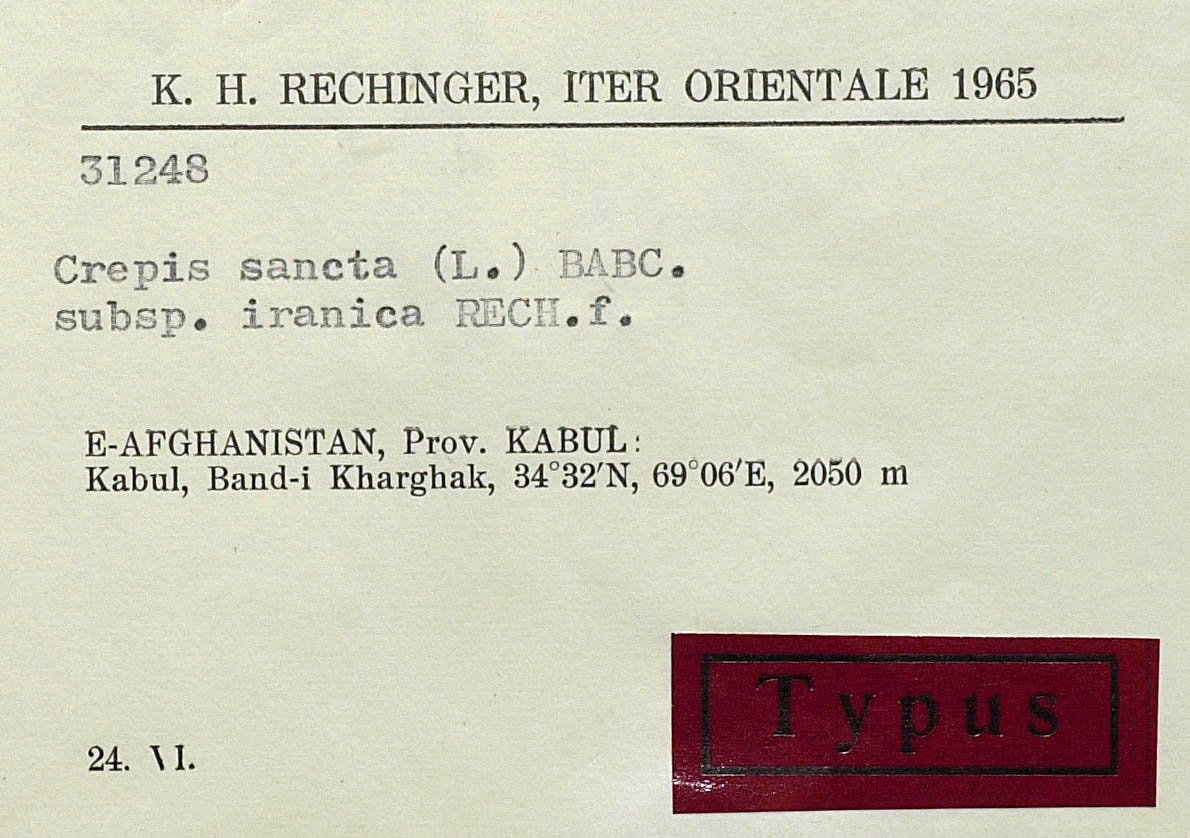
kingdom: Plantae
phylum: Tracheophyta
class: Magnoliopsida
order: Asterales
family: Asteraceae
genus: Crepis
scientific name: Crepis sancta
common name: Hawk's-beard
